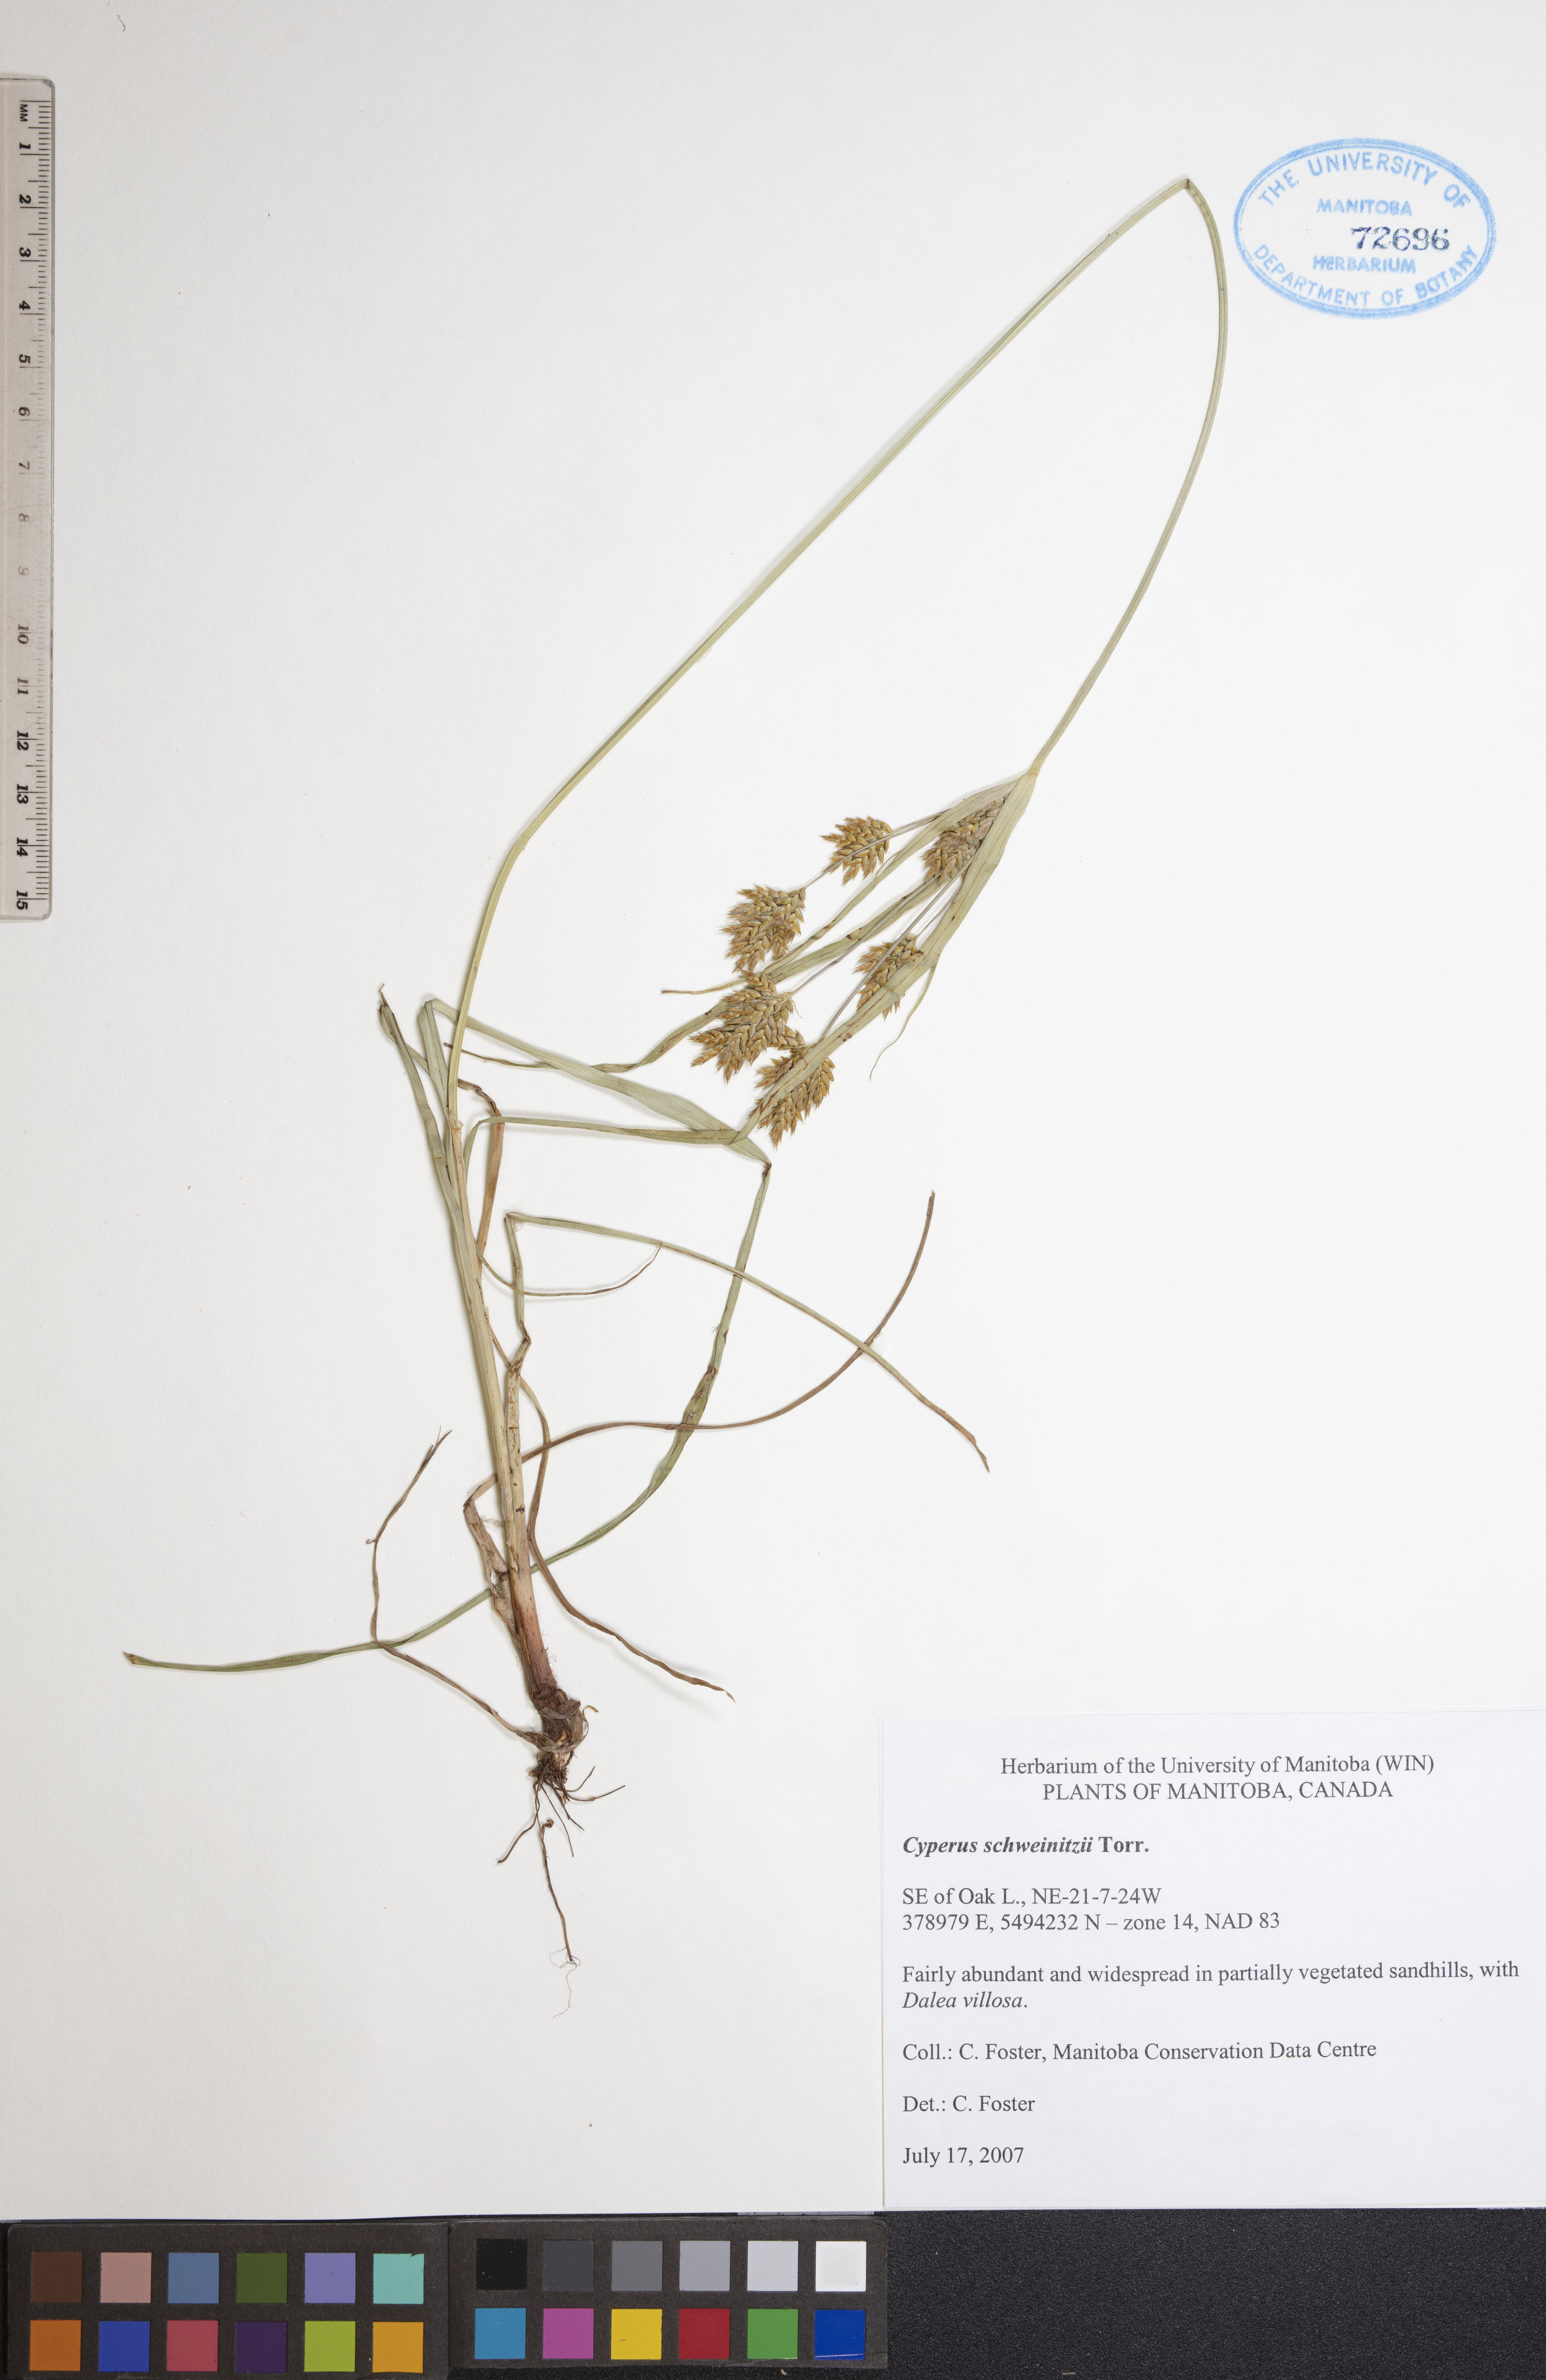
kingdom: Plantae
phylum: Tracheophyta
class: Liliopsida
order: Poales
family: Cyperaceae
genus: Cyperus
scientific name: Cyperus schweinitzii
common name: Schweinitz's cyperus
